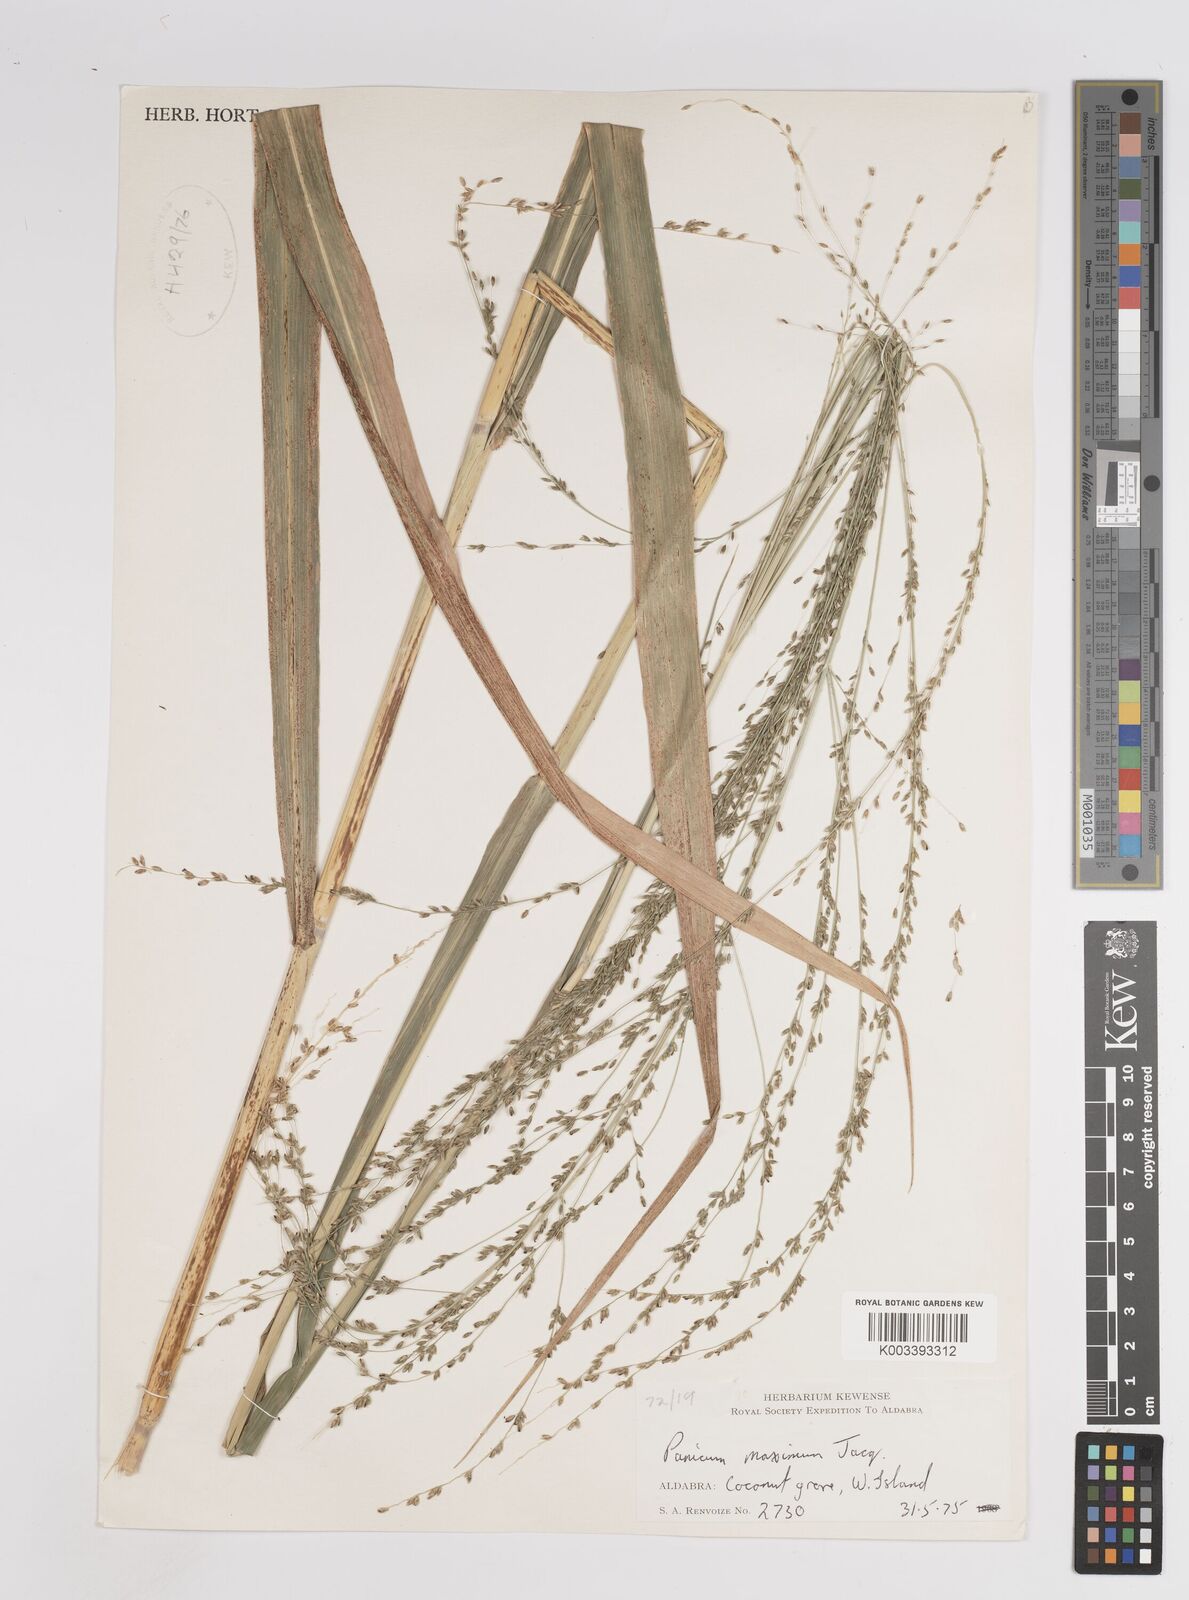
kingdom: Plantae
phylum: Tracheophyta
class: Liliopsida
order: Poales
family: Poaceae
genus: Megathyrsus
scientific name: Megathyrsus maximus
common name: Guineagrass
